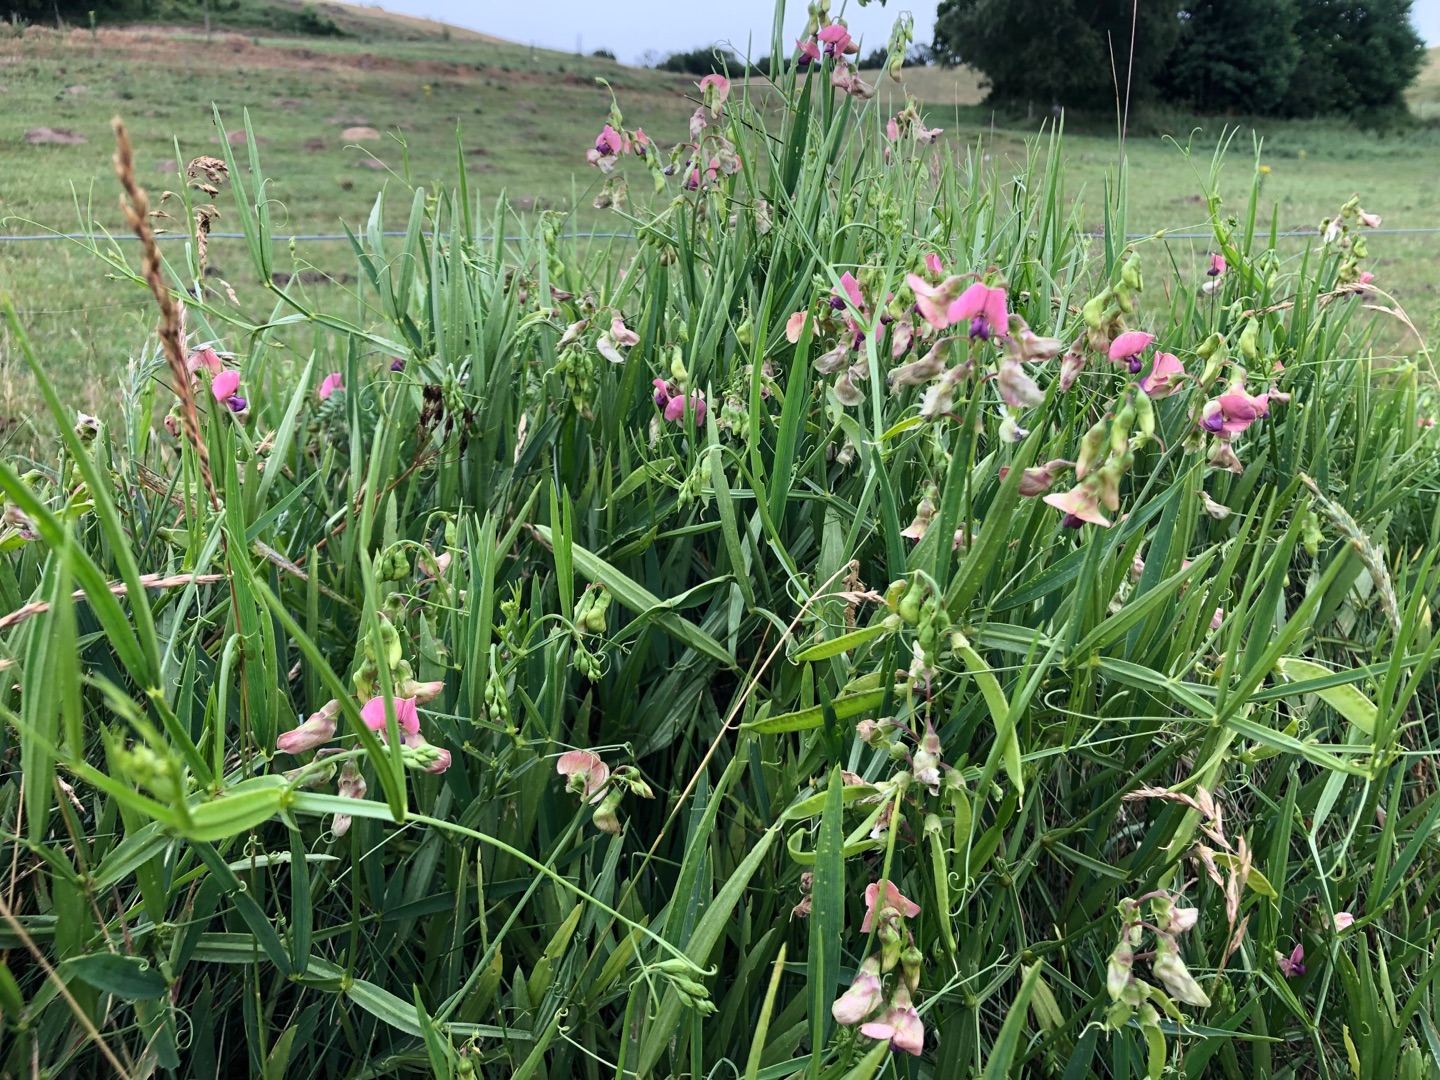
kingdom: Plantae
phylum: Tracheophyta
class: Magnoliopsida
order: Fabales
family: Fabaceae
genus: Lathyrus
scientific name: Lathyrus sylvestris
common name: Skov-fladbælg
